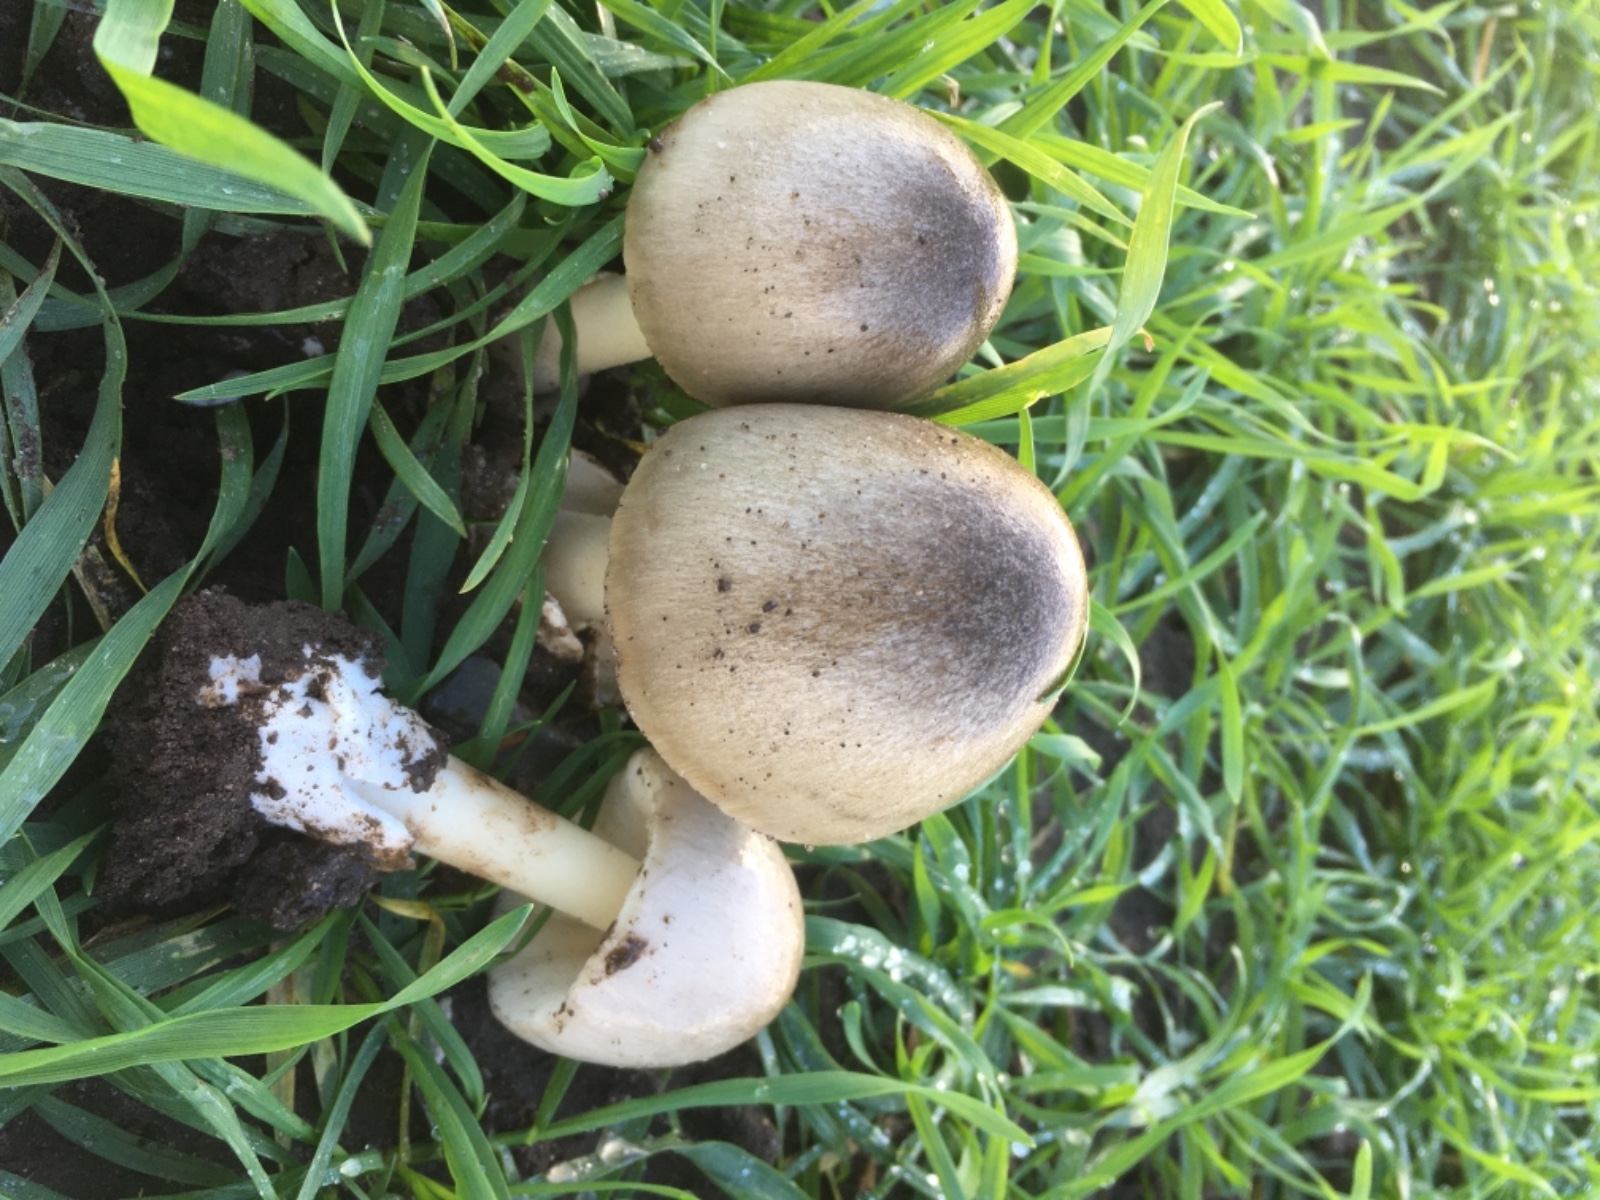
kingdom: Fungi
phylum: Basidiomycota
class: Agaricomycetes
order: Agaricales
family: Pluteaceae
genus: Volvopluteus
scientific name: Volvopluteus gloiocephalus
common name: høj posesvamp
